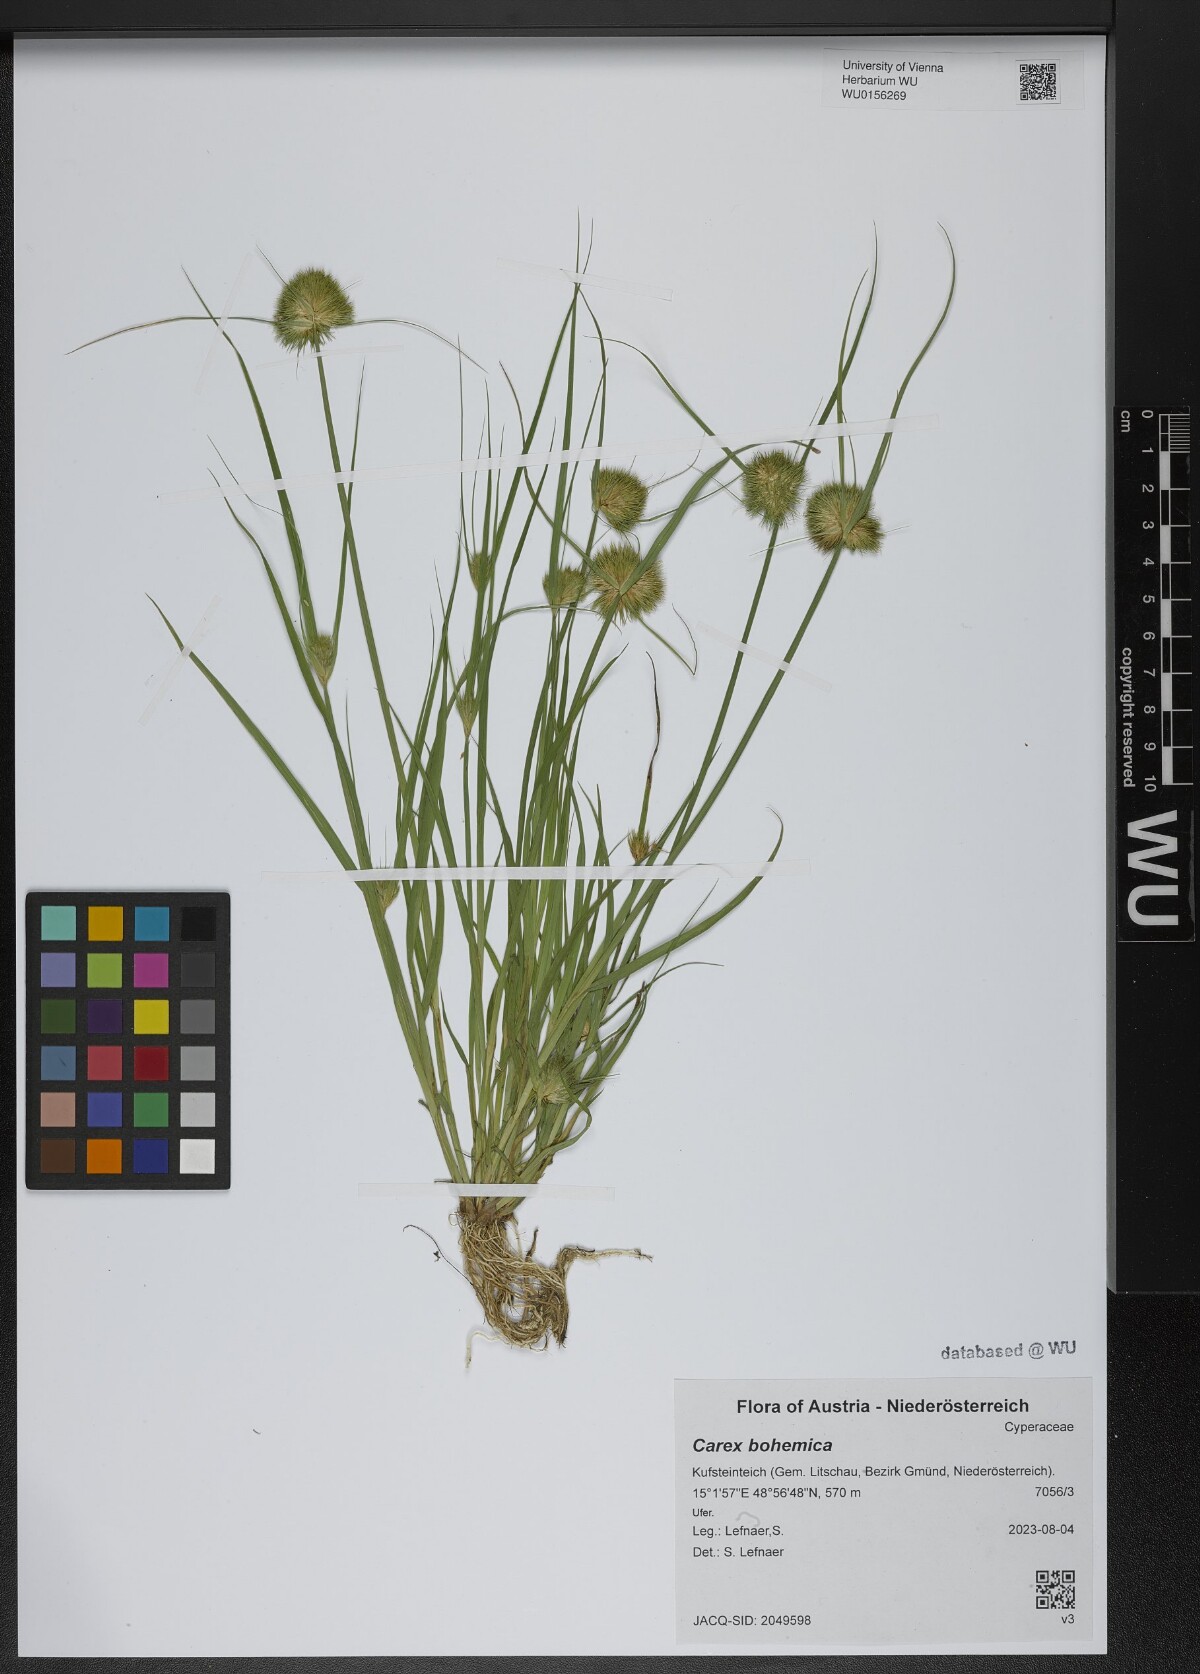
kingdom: Plantae
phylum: Tracheophyta
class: Liliopsida
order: Poales
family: Cyperaceae
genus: Carex
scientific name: Carex bohemica
